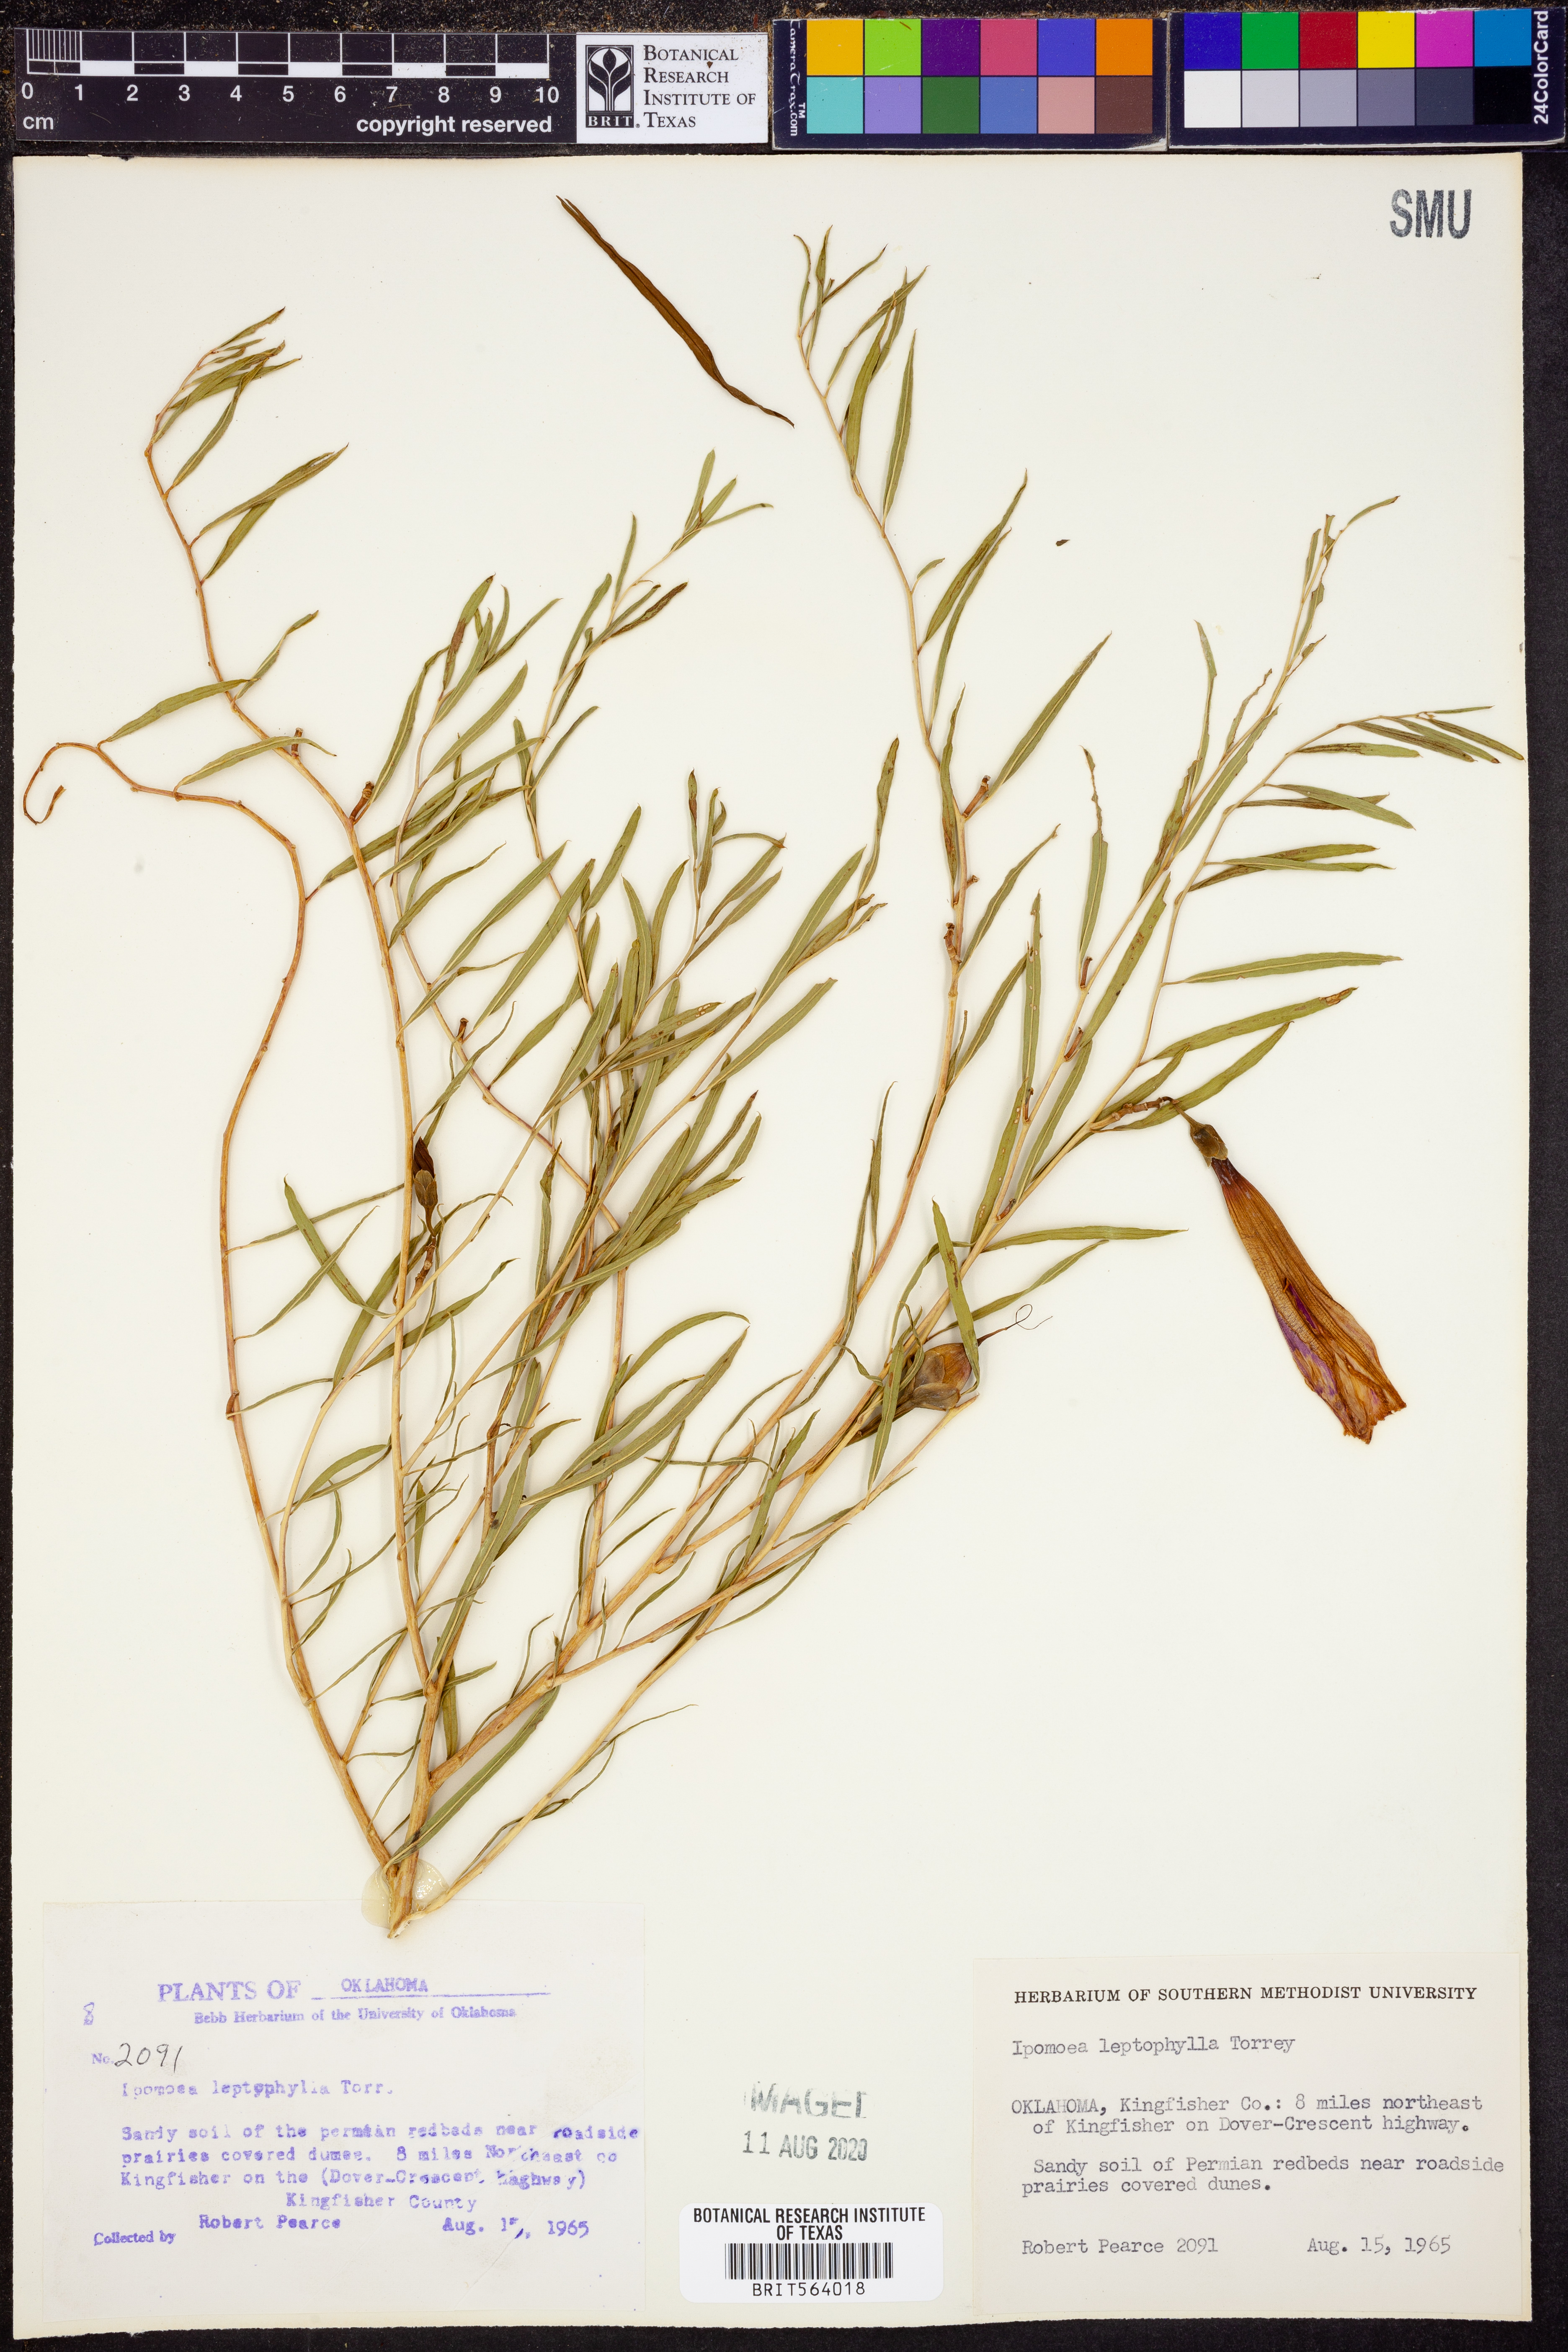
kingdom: Plantae
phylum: Tracheophyta
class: Magnoliopsida
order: Solanales
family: Convolvulaceae
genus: Ipomoea
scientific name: Ipomoea leptophylla
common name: Bush moonflower
